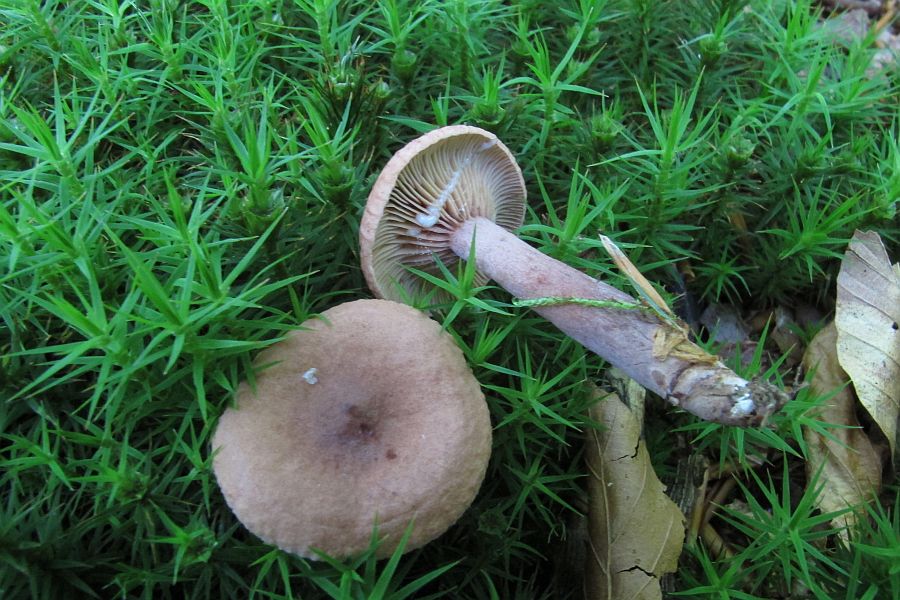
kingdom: Fungi
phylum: Basidiomycota
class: Agaricomycetes
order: Russulales
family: Russulaceae
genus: Lactarius
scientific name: Lactarius camphoratus
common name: kamfer-mælkehat
